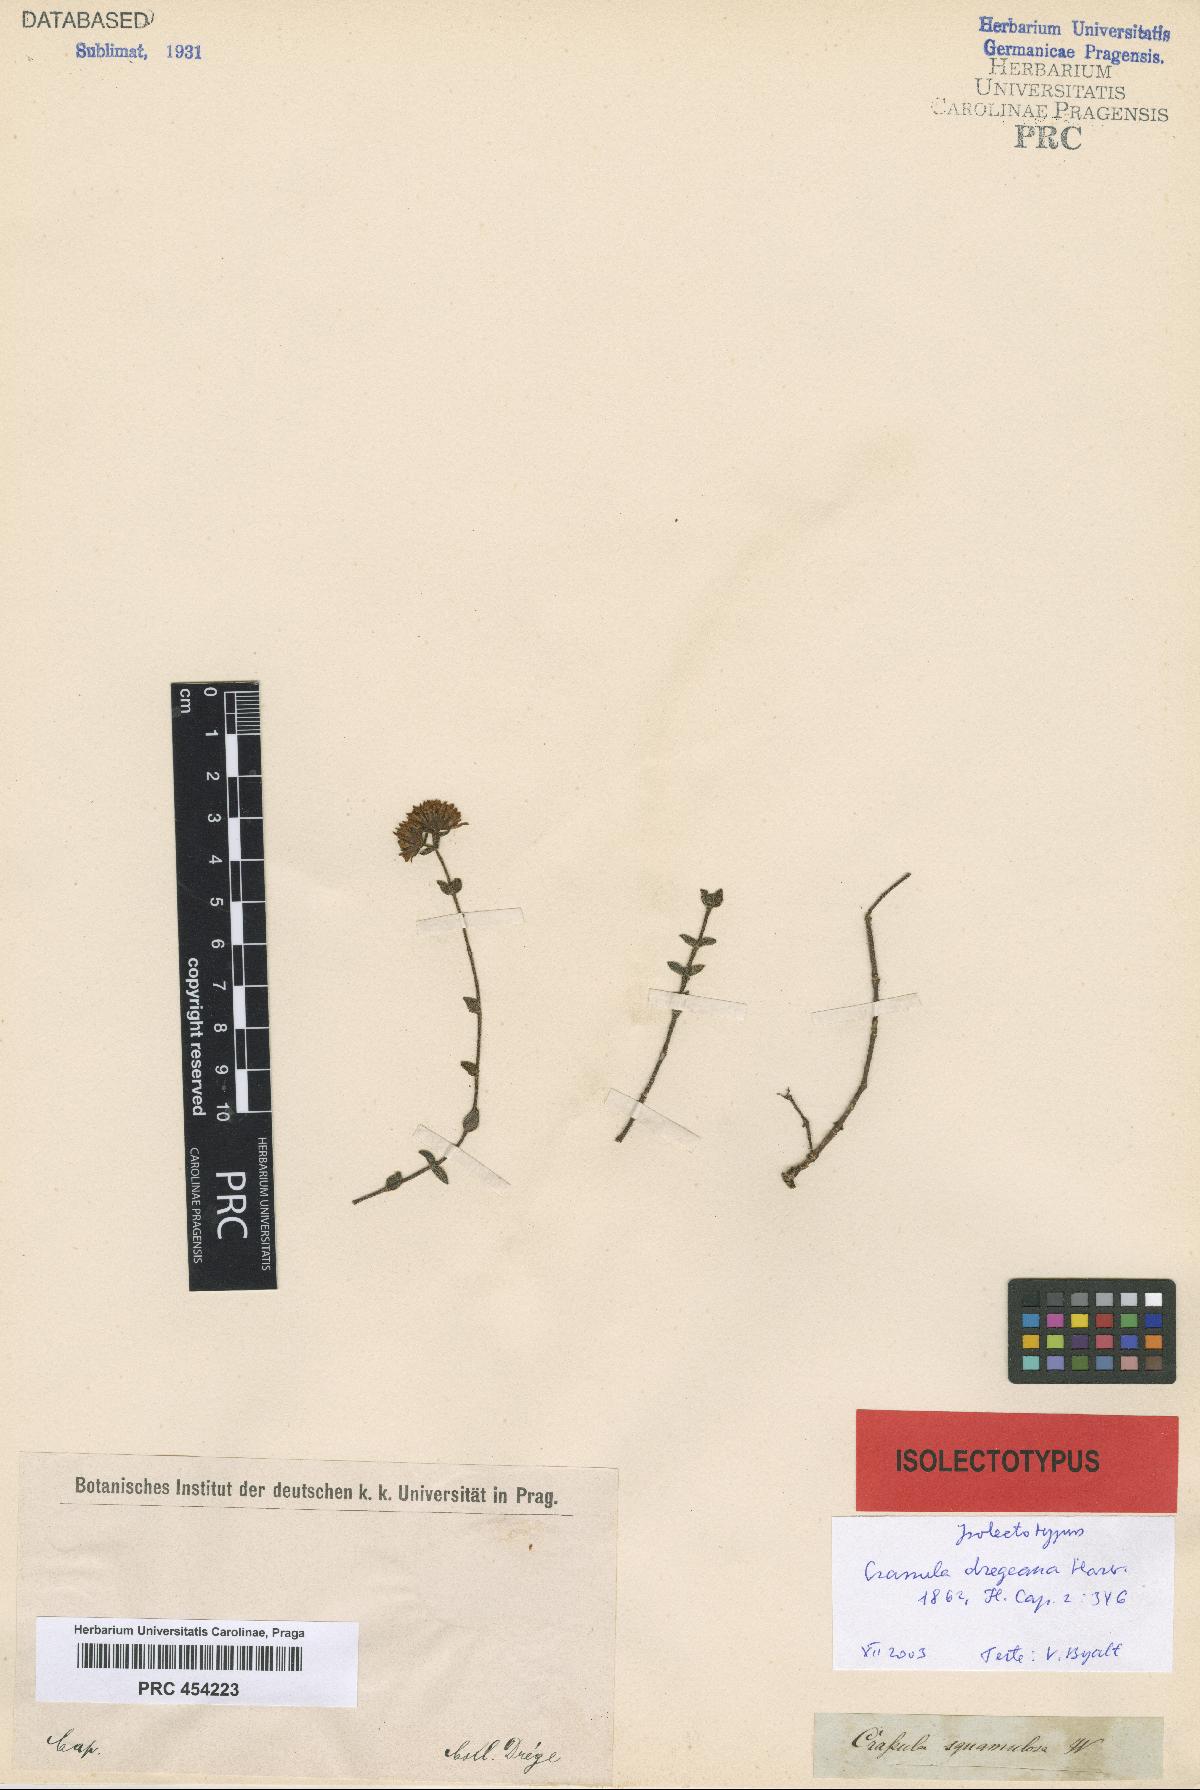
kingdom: Plantae
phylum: Tracheophyta
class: Magnoliopsida
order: Saxifragales
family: Crassulaceae
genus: Crassula
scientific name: Crassula obovata
